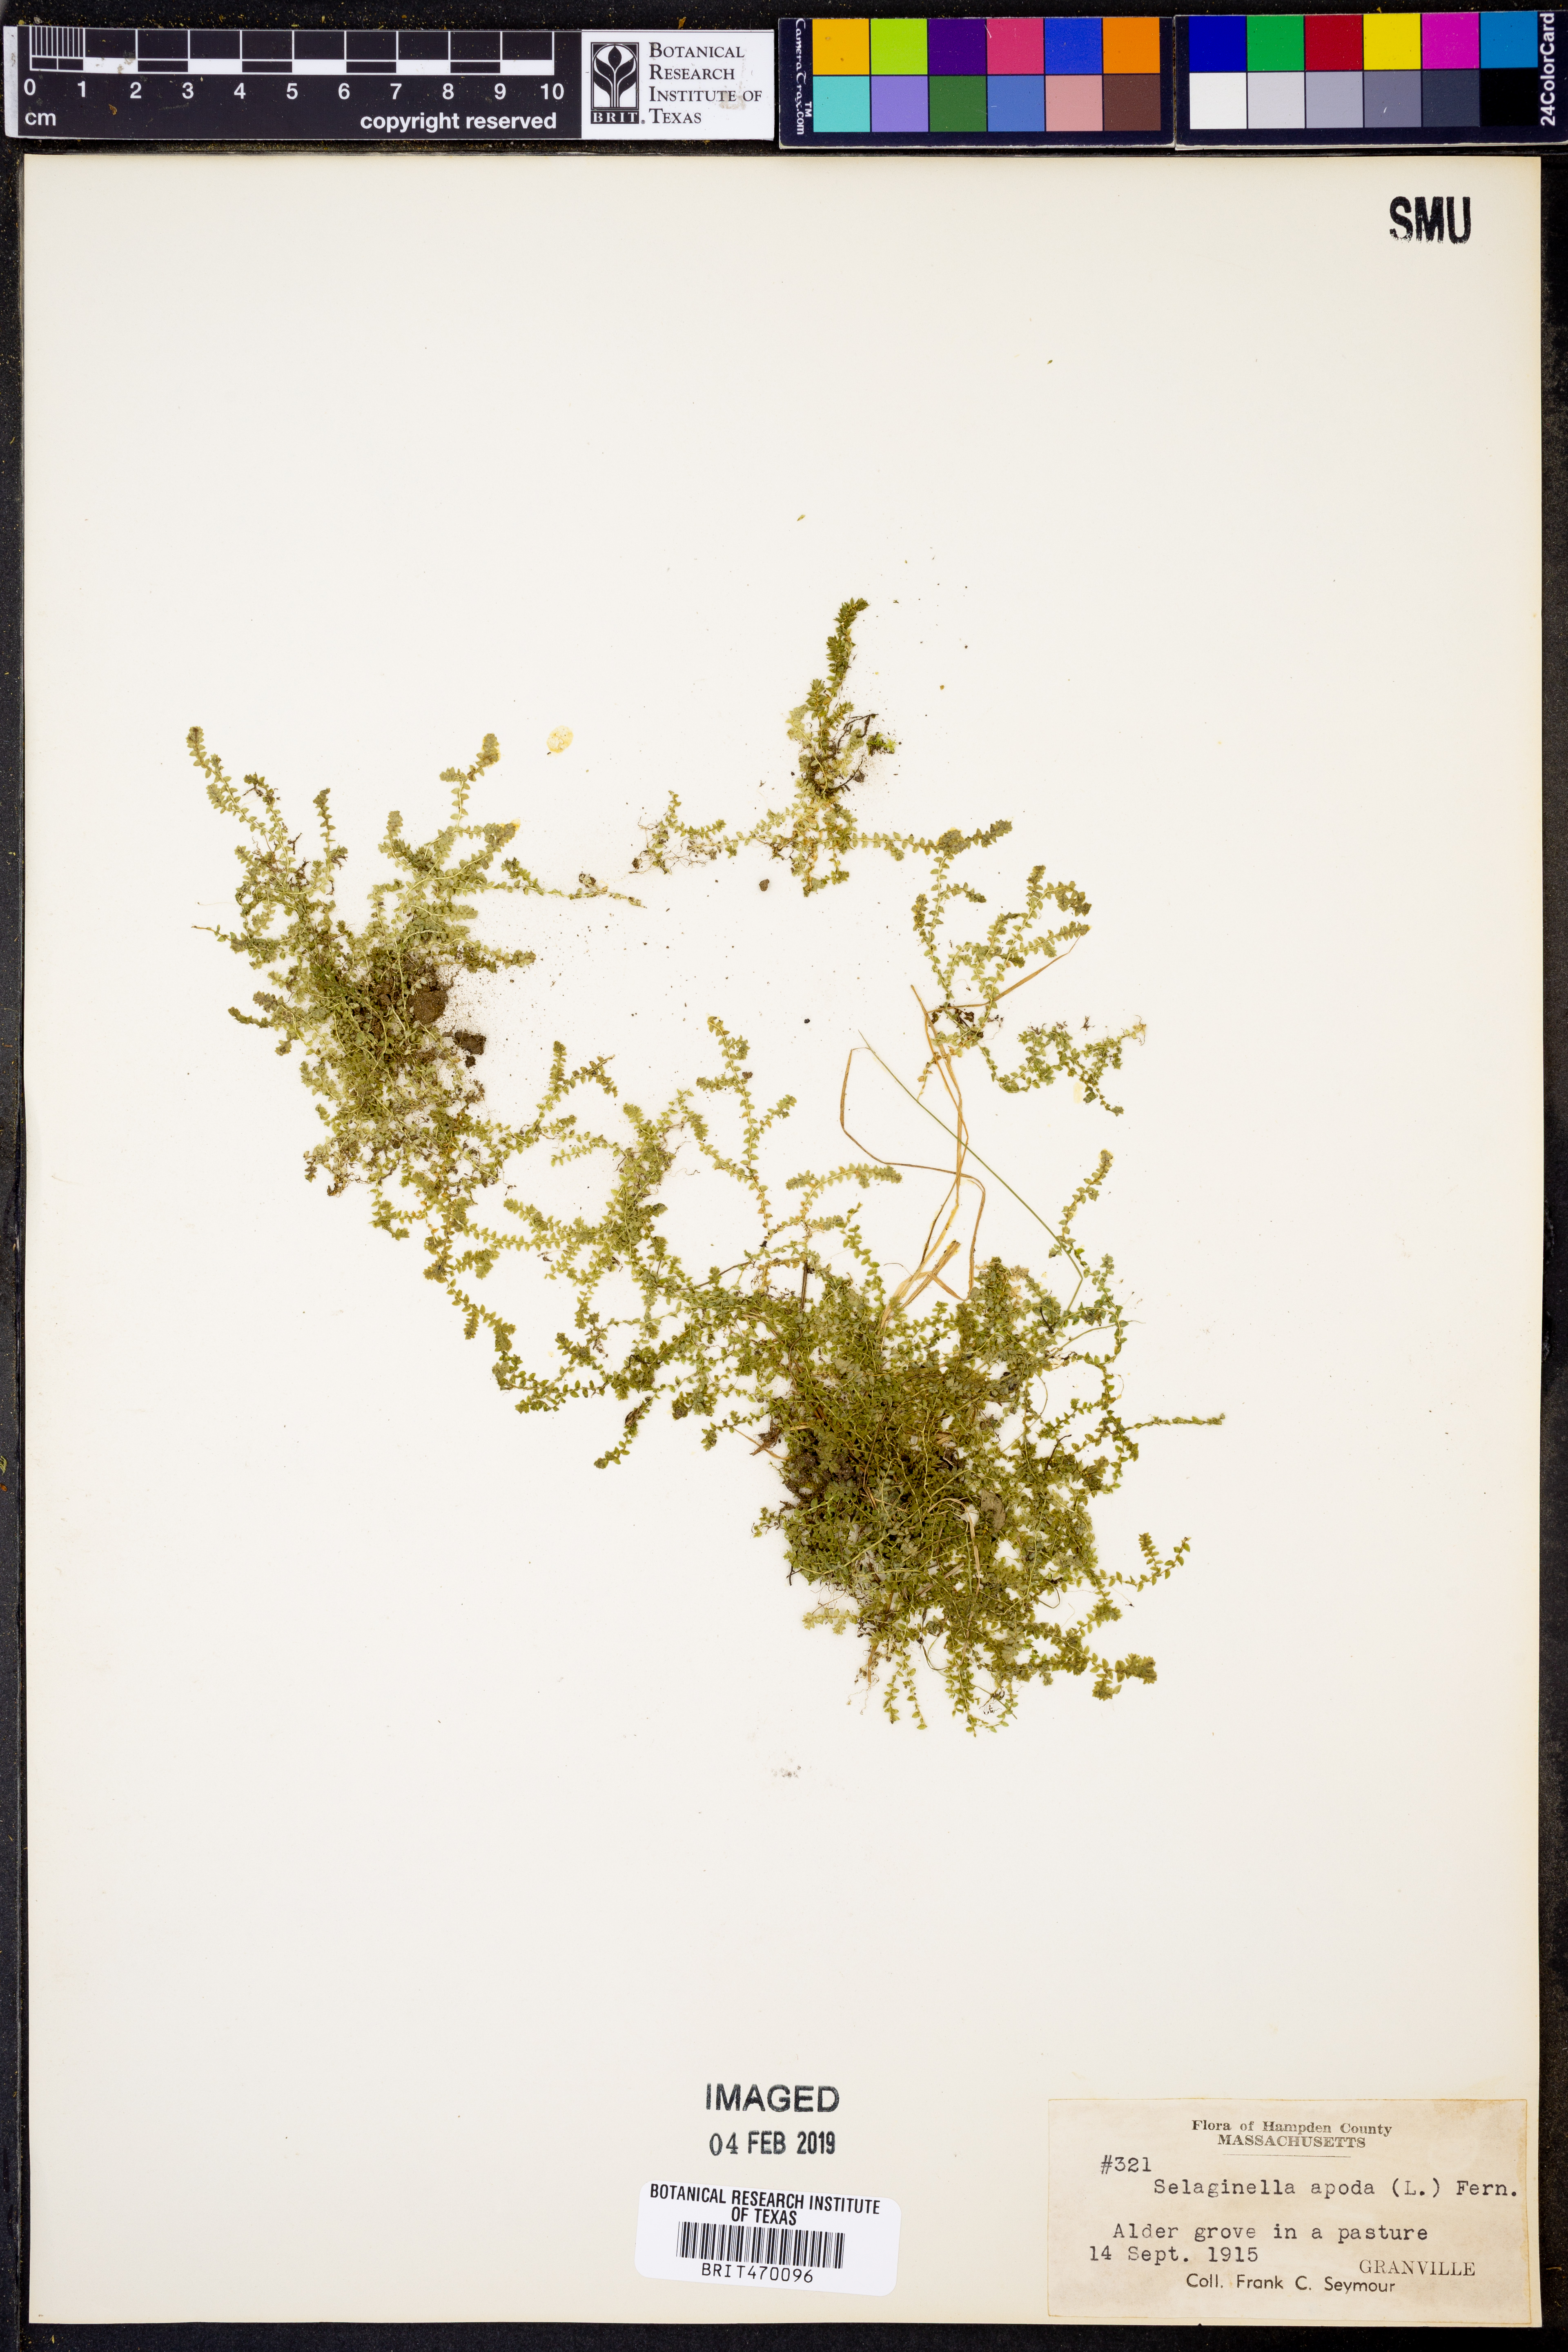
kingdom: Plantae
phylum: Tracheophyta
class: Lycopodiopsida
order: Selaginellales
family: Selaginellaceae
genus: Selaginella
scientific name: Selaginella apoda
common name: Creeping spikemoss
